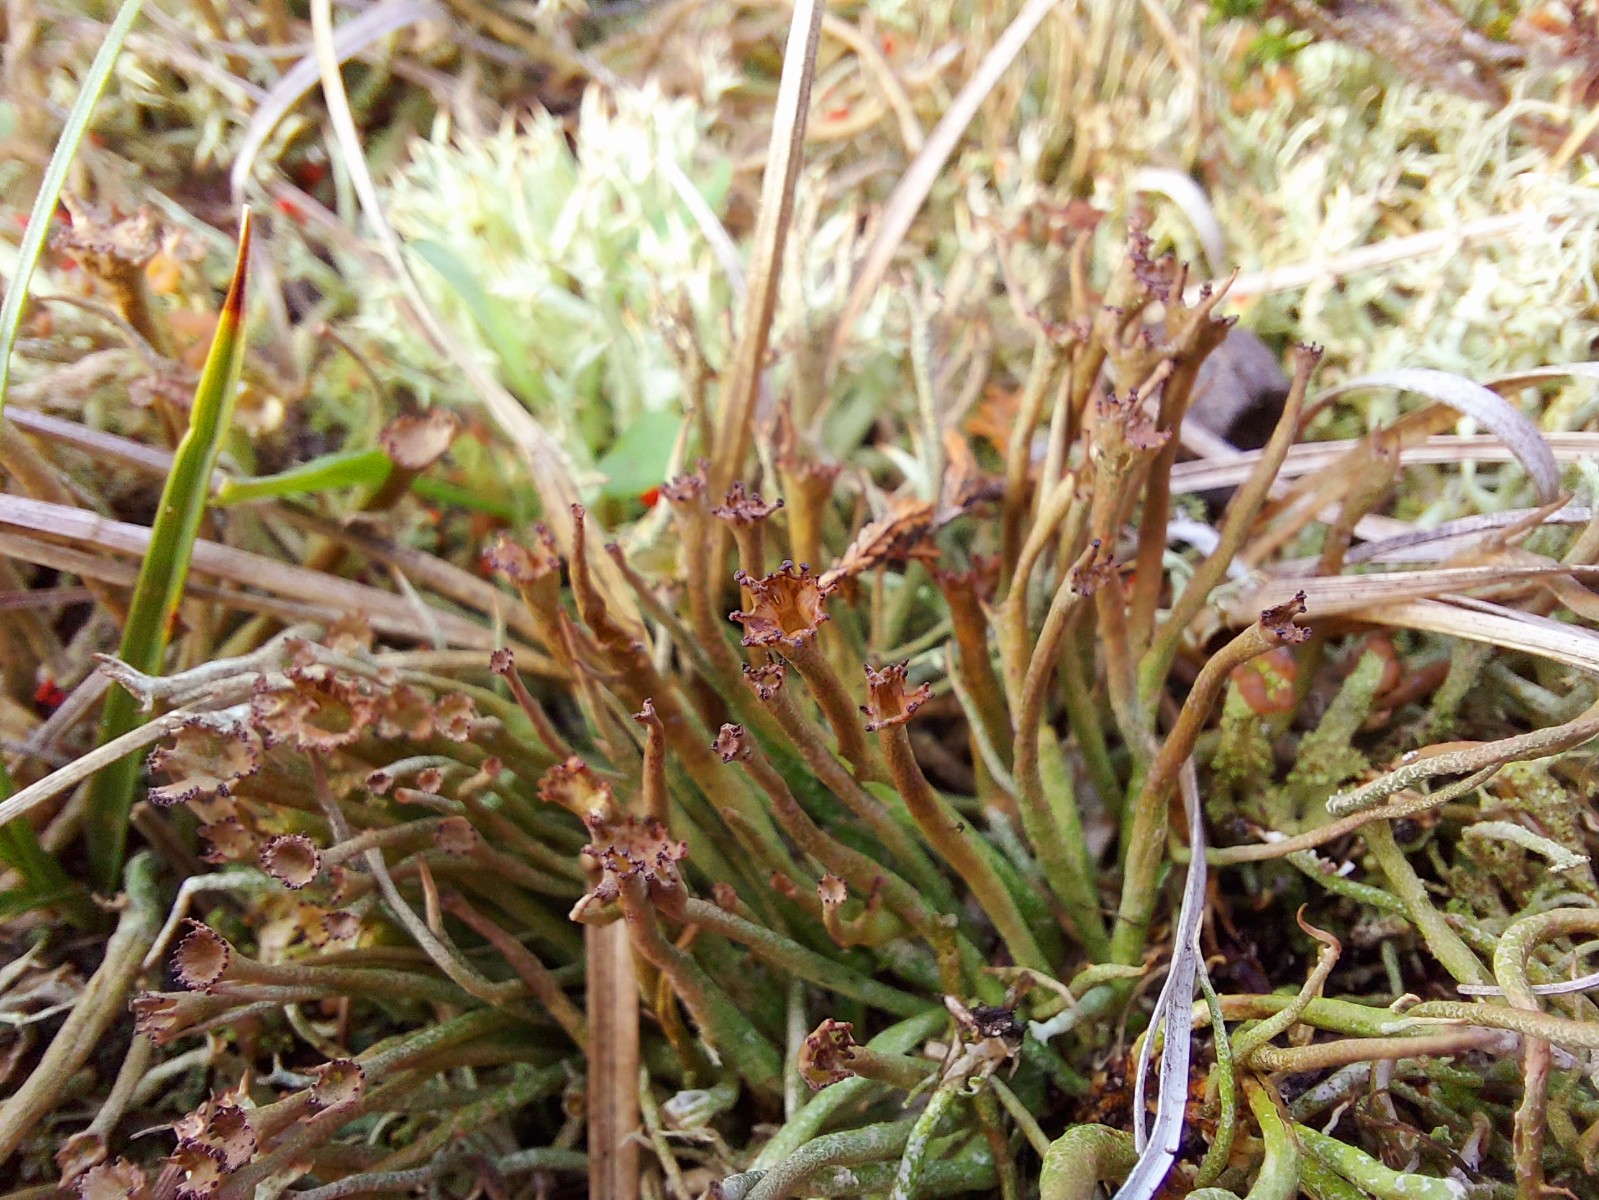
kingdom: Fungi
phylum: Ascomycota
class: Lecanoromycetes
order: Lecanorales
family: Cladoniaceae
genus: Cladonia
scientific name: Cladonia gracilis
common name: slank bægerlav
